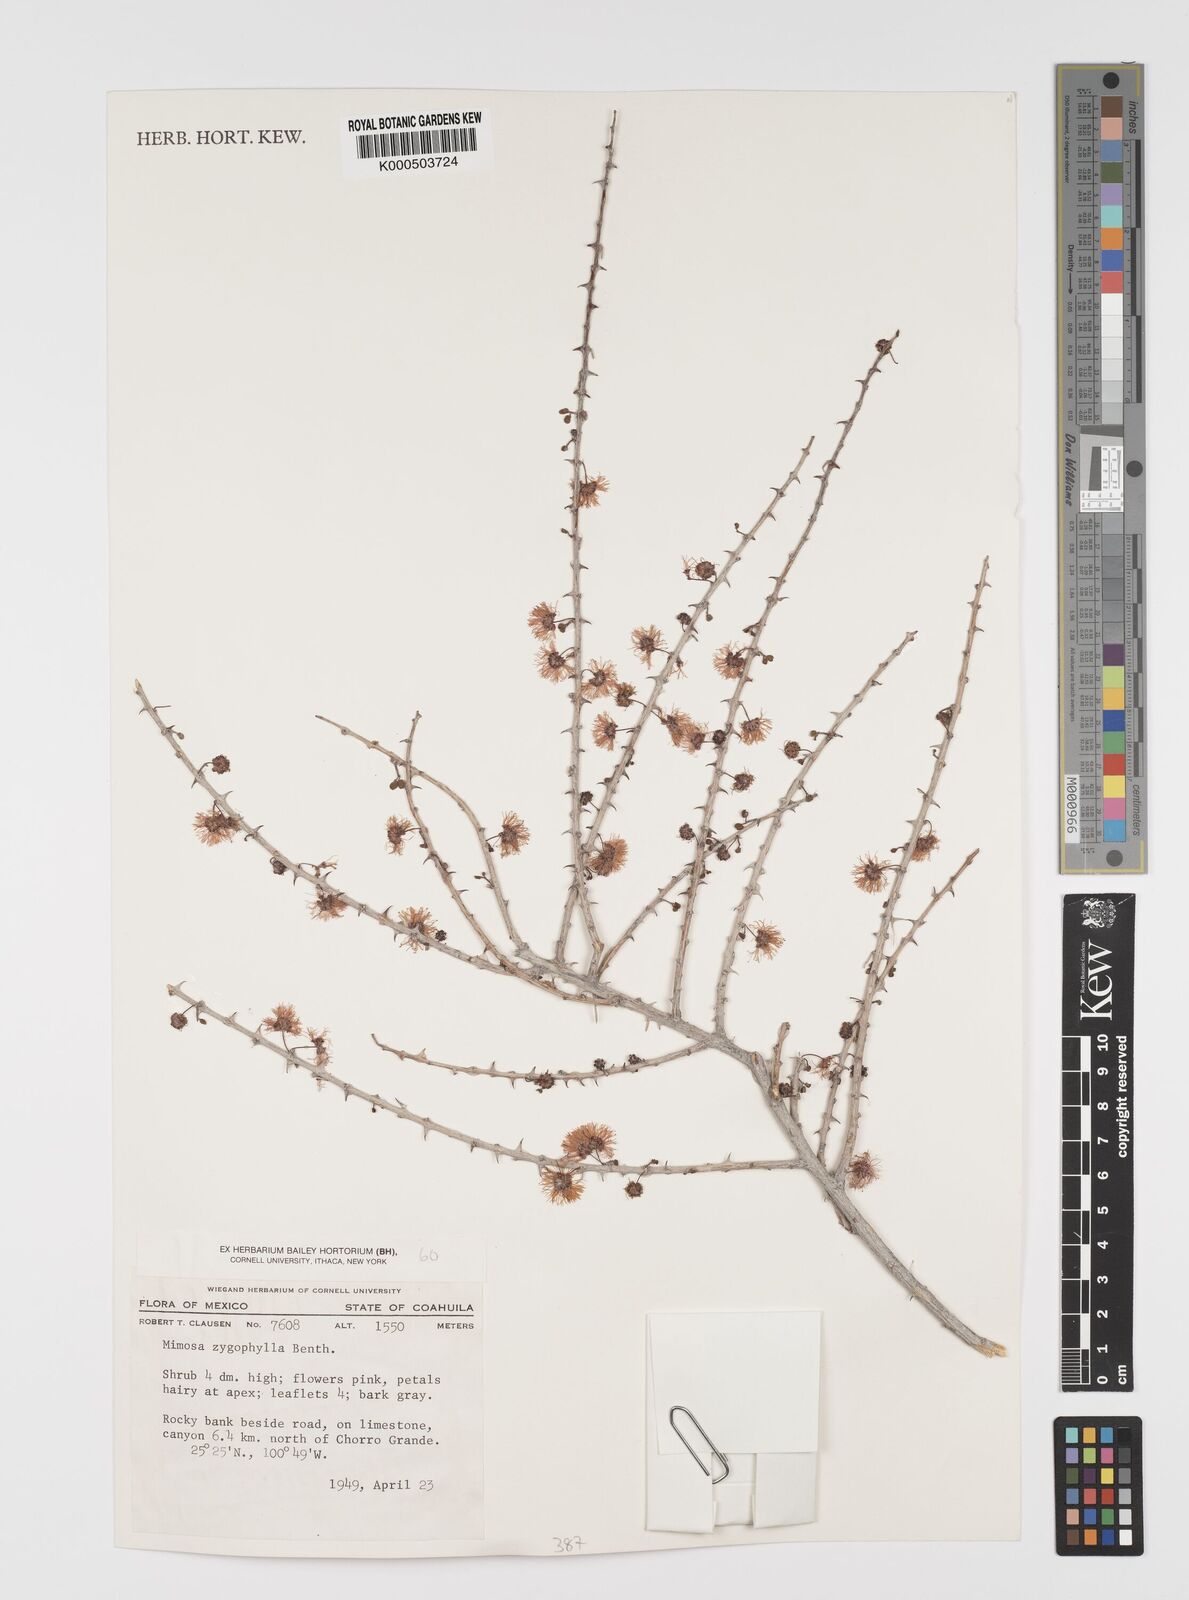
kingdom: Plantae
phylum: Tracheophyta
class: Magnoliopsida
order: Fabales
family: Fabaceae
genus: Mimosa
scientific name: Mimosa zygophylla
